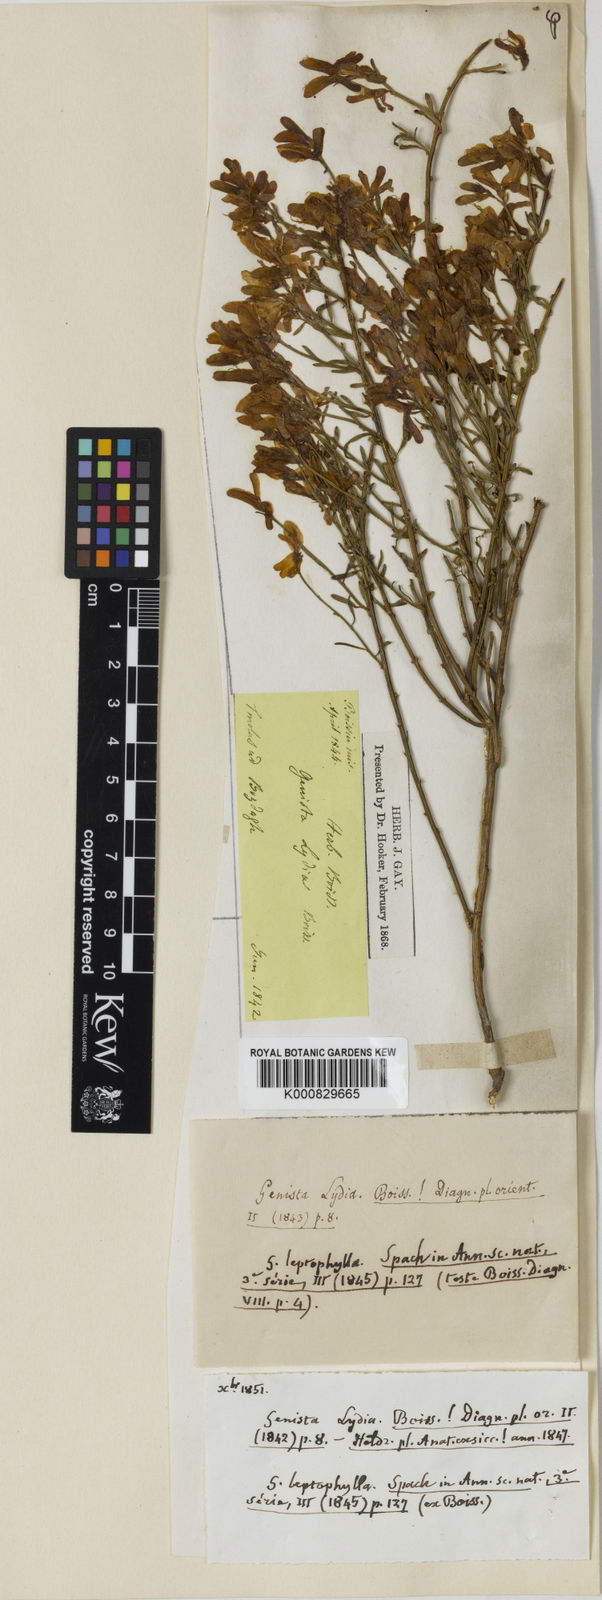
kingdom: Plantae
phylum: Tracheophyta
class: Magnoliopsida
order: Fabales
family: Fabaceae
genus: Genista
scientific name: Genista lydia
